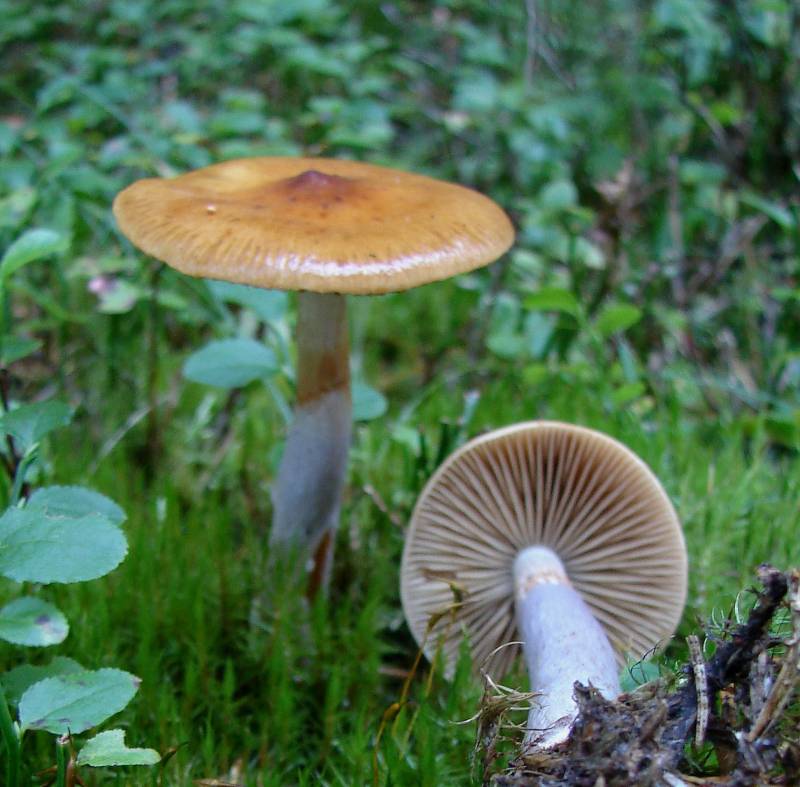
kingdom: Fungi
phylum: Basidiomycota
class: Agaricomycetes
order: Agaricales
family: Cortinariaceae
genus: Cortinarius
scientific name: Cortinarius collinitus
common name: spættet slørhat
